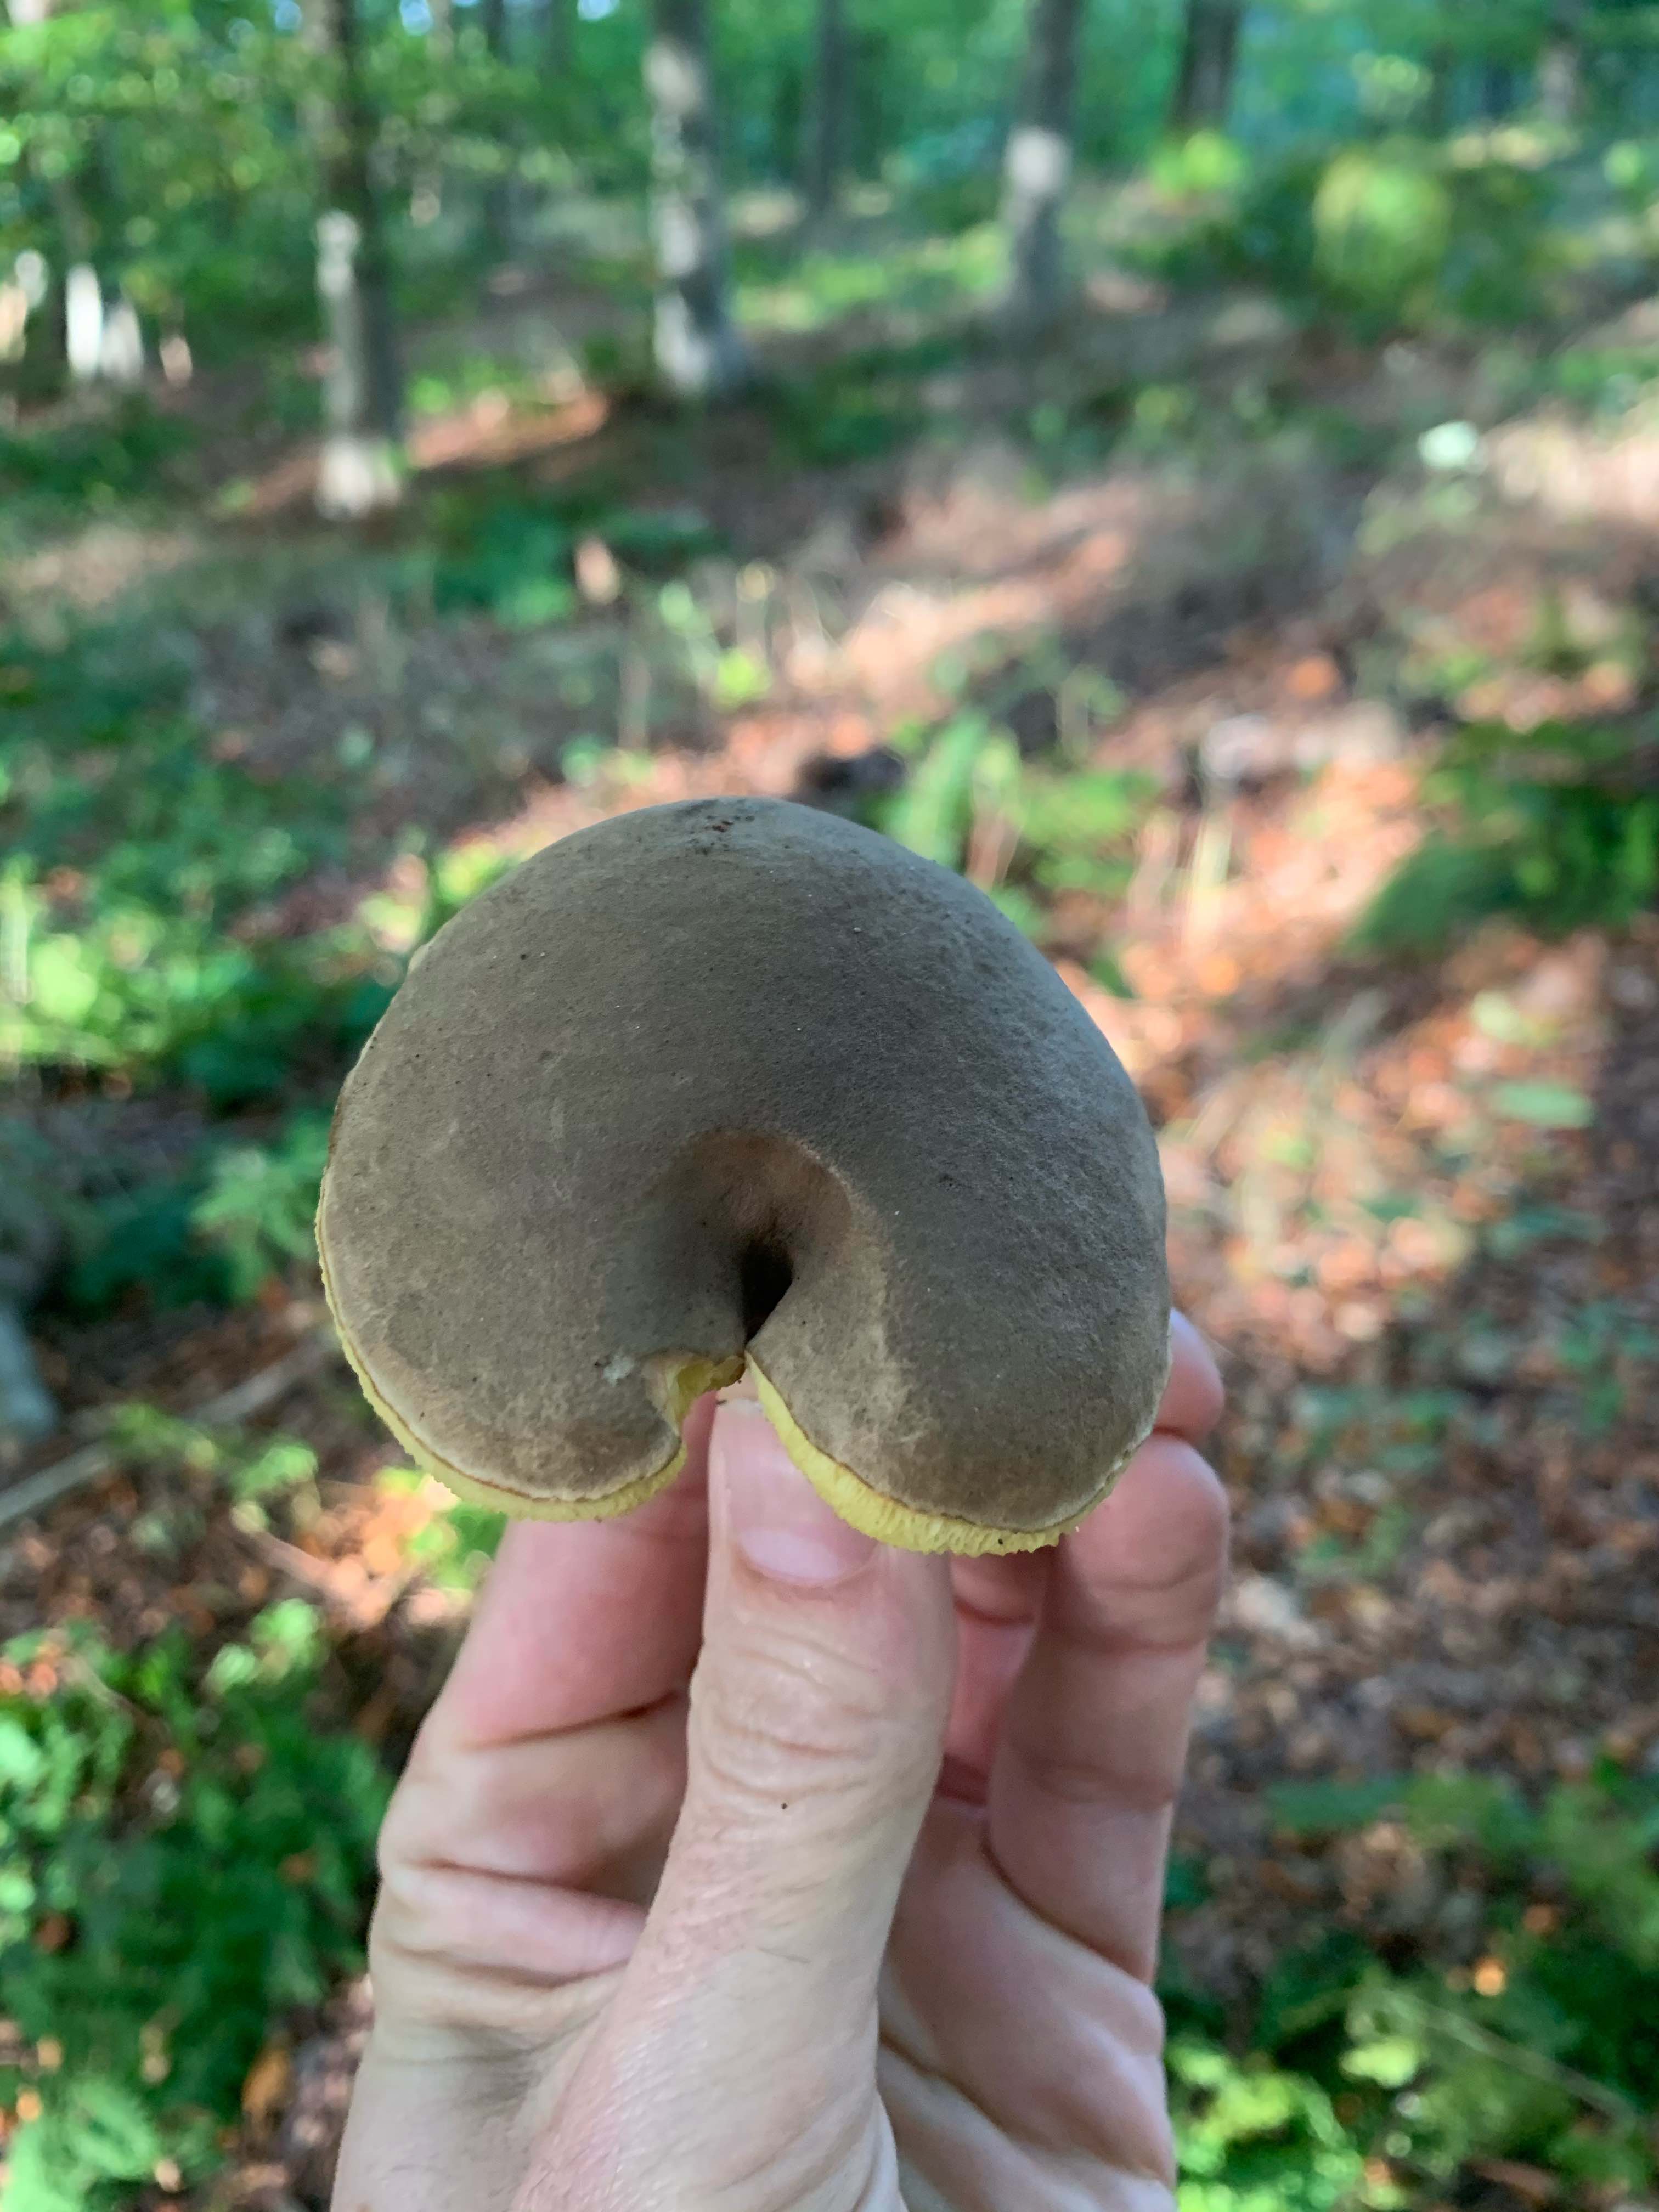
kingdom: Fungi
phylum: Basidiomycota
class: Agaricomycetes
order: Boletales
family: Boletaceae
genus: Xerocomellus
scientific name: Xerocomellus chrysenteron
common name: rødsprukken rørhat
